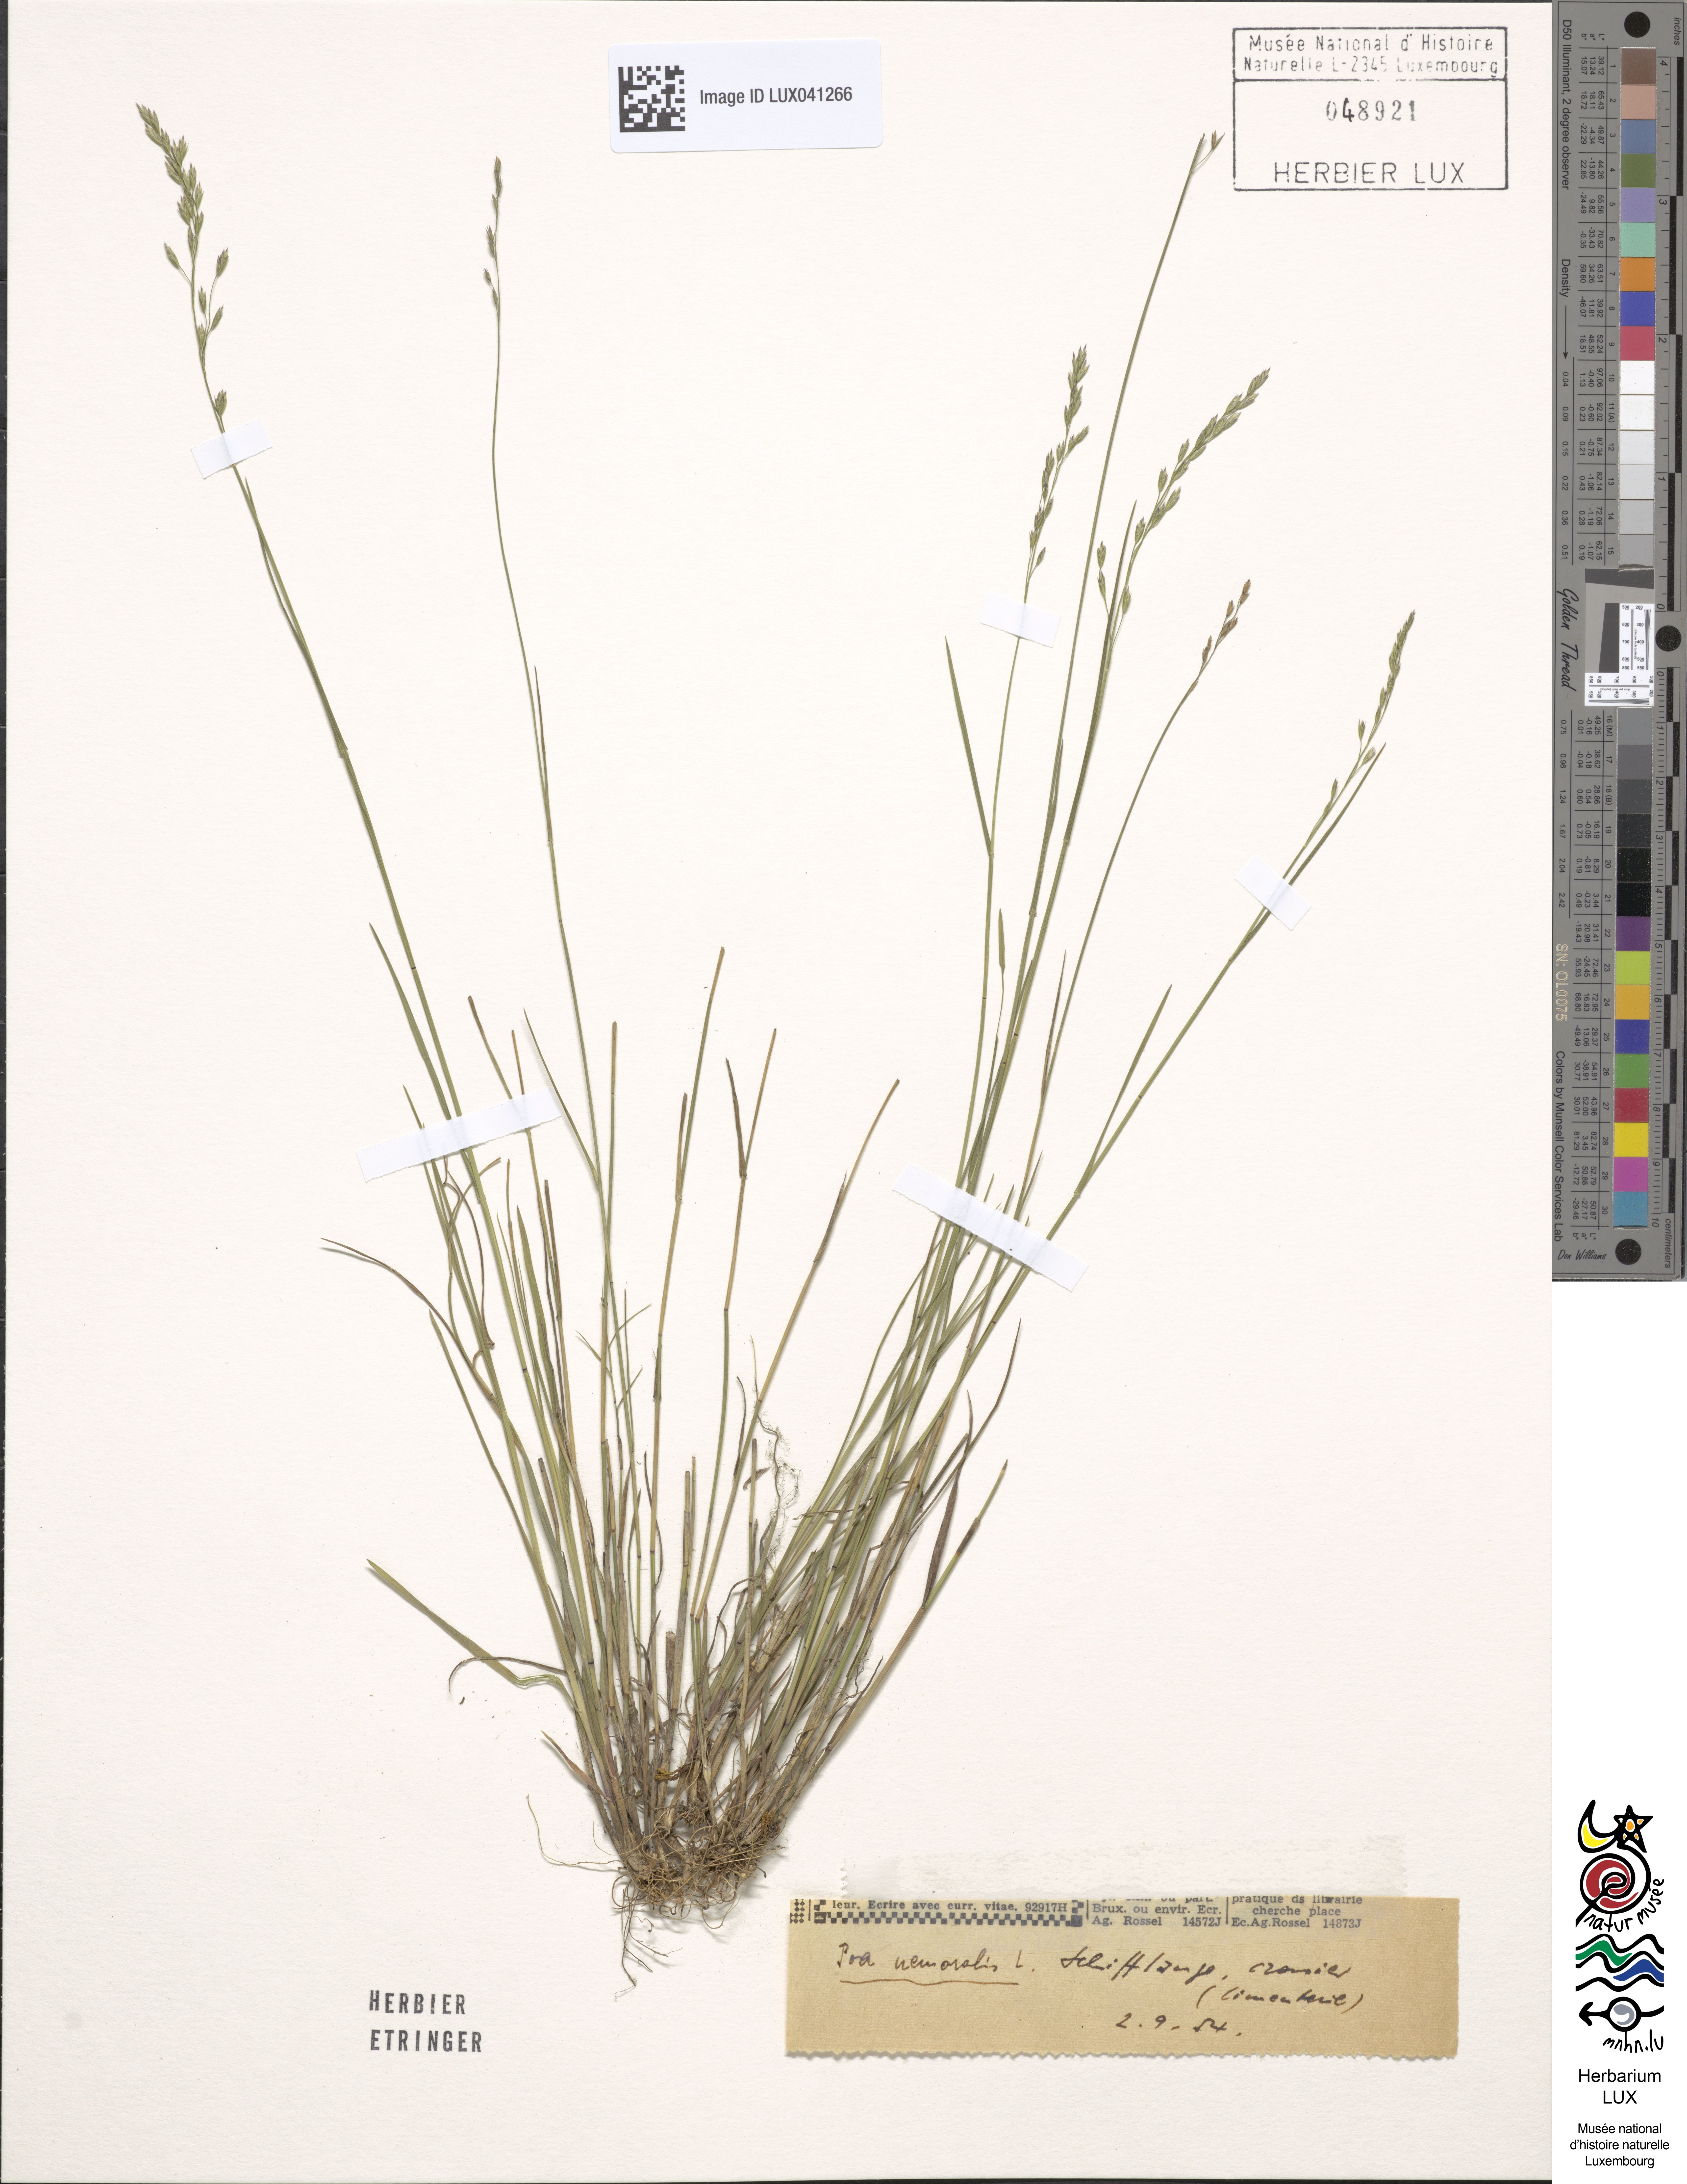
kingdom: Plantae
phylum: Tracheophyta
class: Liliopsida
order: Poales
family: Poaceae
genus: Poa
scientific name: Poa nemoralis
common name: Wood bluegrass
